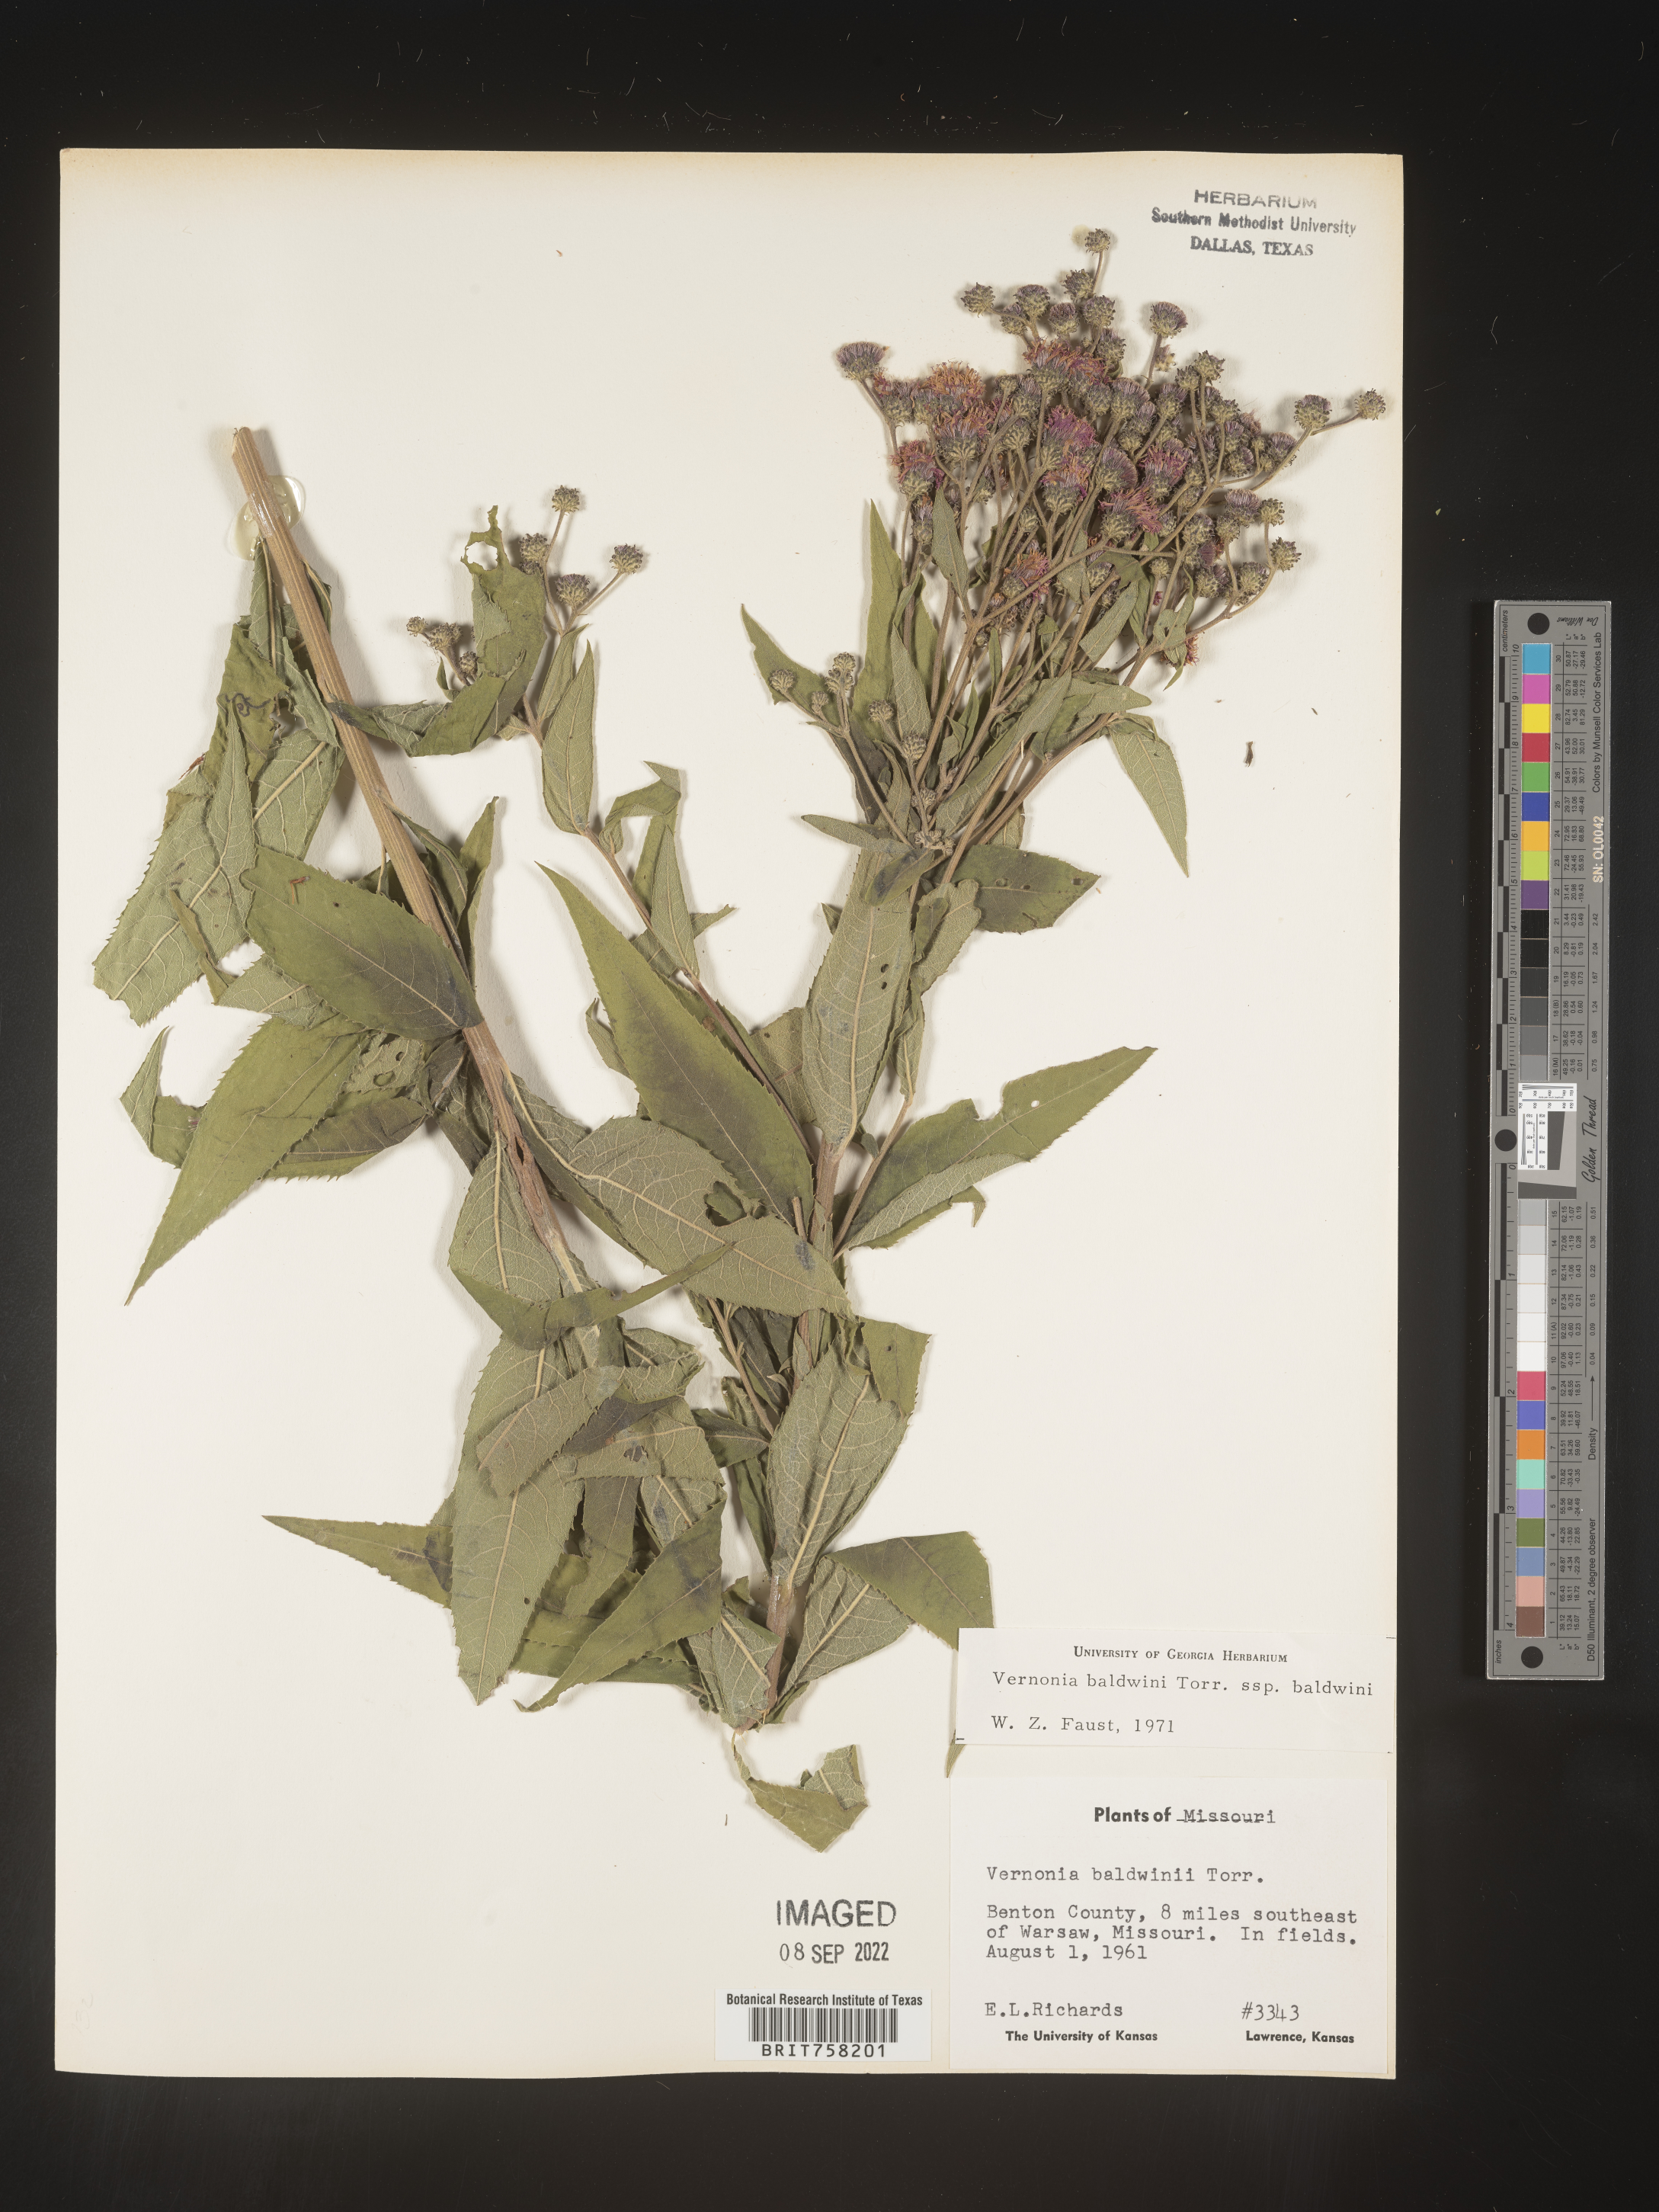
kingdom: Plantae
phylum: Tracheophyta
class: Magnoliopsida
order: Asterales
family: Asteraceae
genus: Vernonia
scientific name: Vernonia baldwinii
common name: Western ironweed
